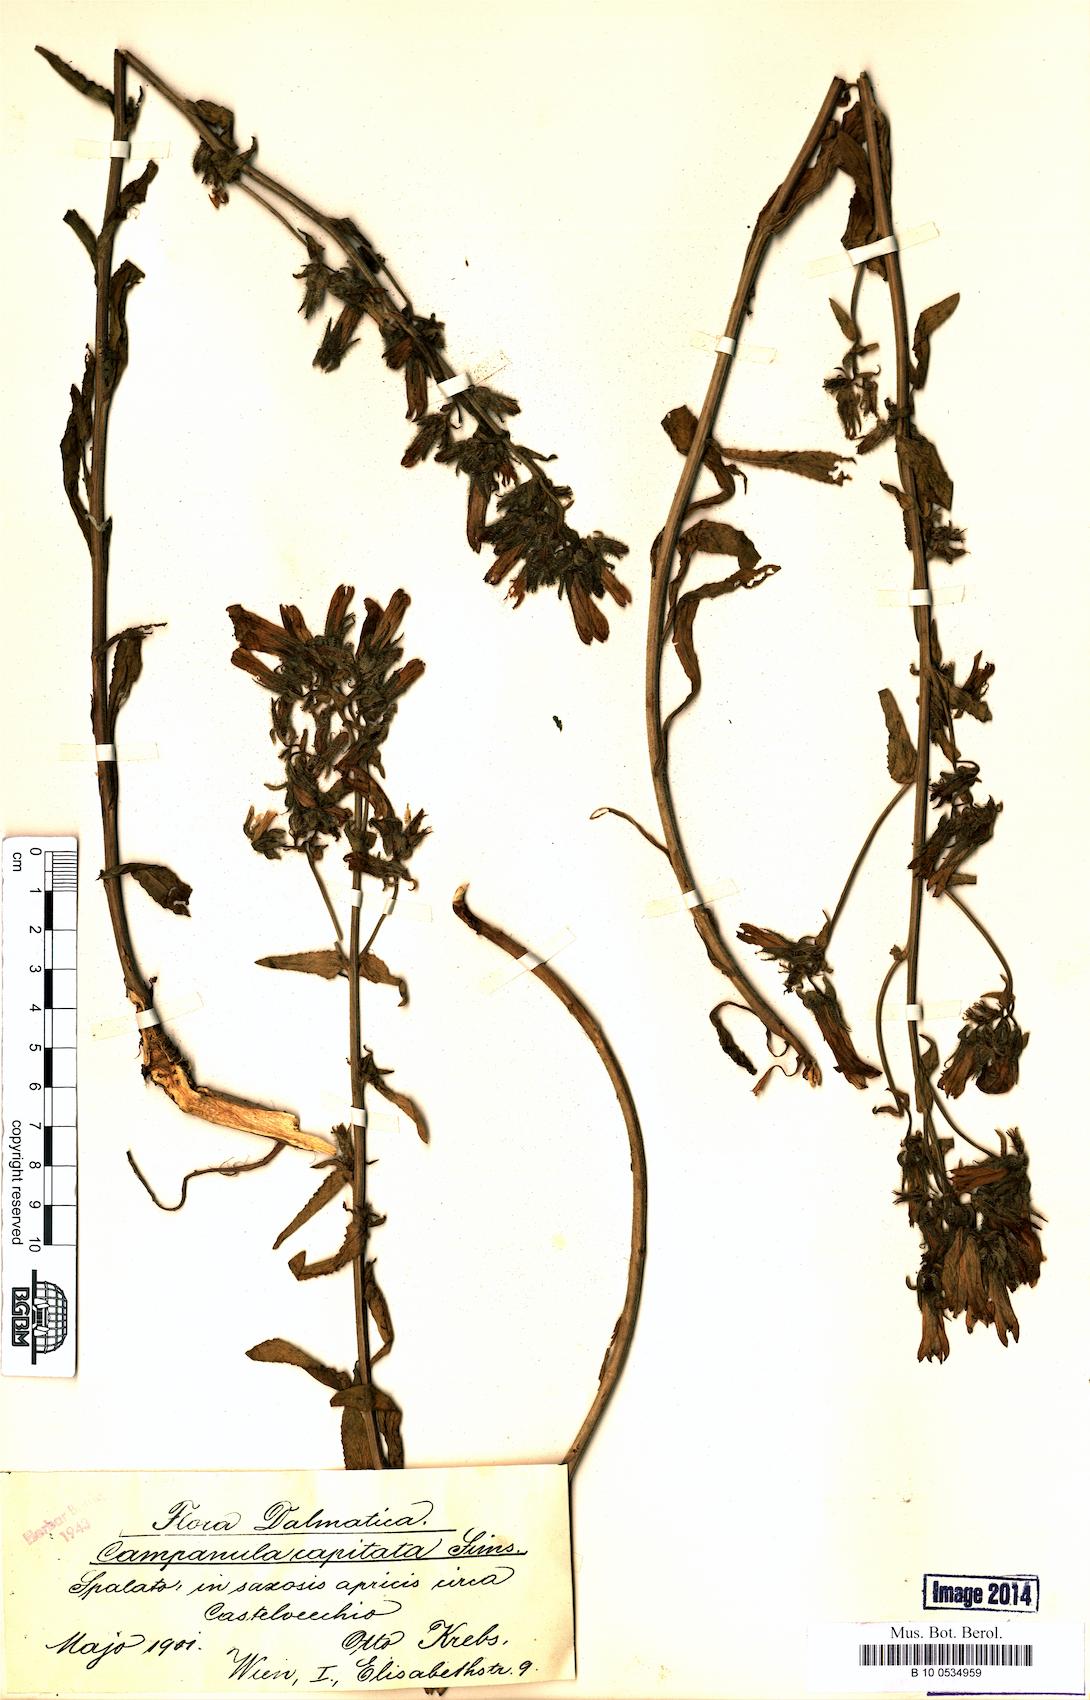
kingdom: Plantae
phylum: Tracheophyta
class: Magnoliopsida
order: Asterales
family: Campanulaceae
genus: Campanula
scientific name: Campanula lingulata
